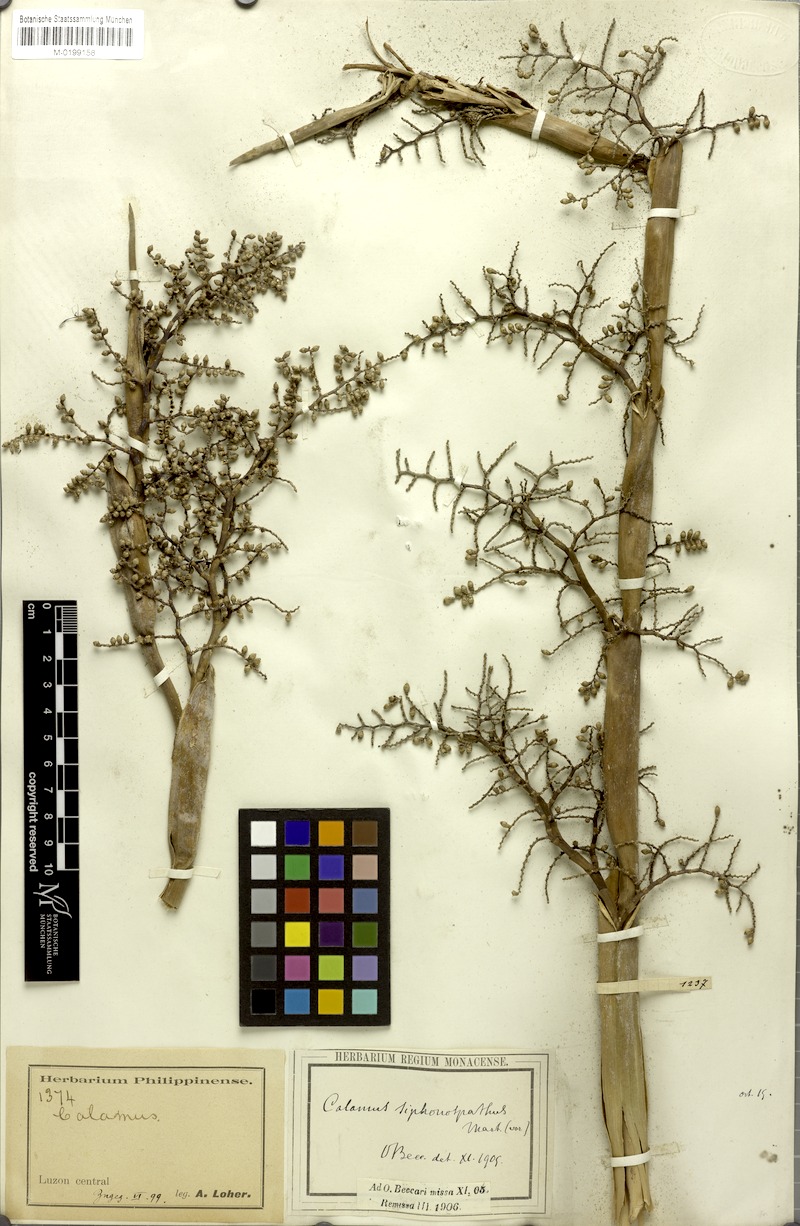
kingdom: Plantae
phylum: Tracheophyta
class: Liliopsida
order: Arecales
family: Arecaceae
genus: Calamus
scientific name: Calamus siphonospathus
